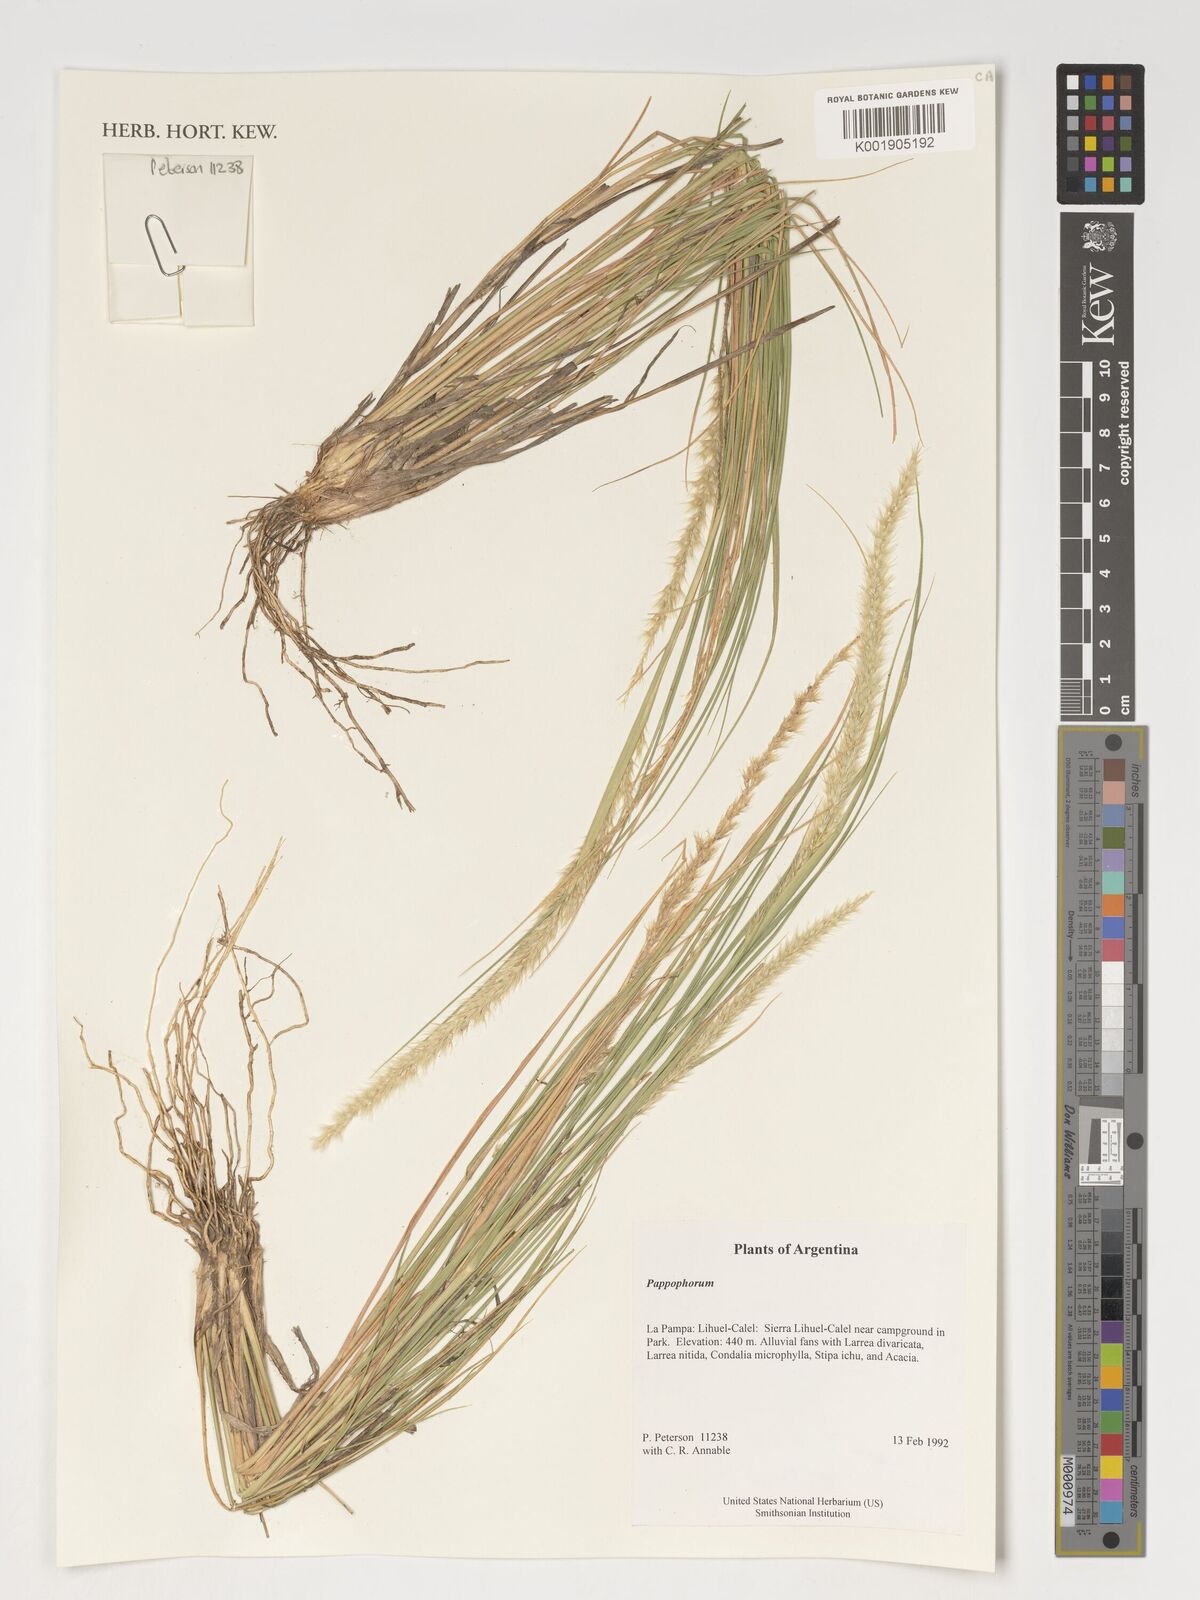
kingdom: Plantae
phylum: Tracheophyta
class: Liliopsida
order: Poales
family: Poaceae
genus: Pappophorum
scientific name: Pappophorum
